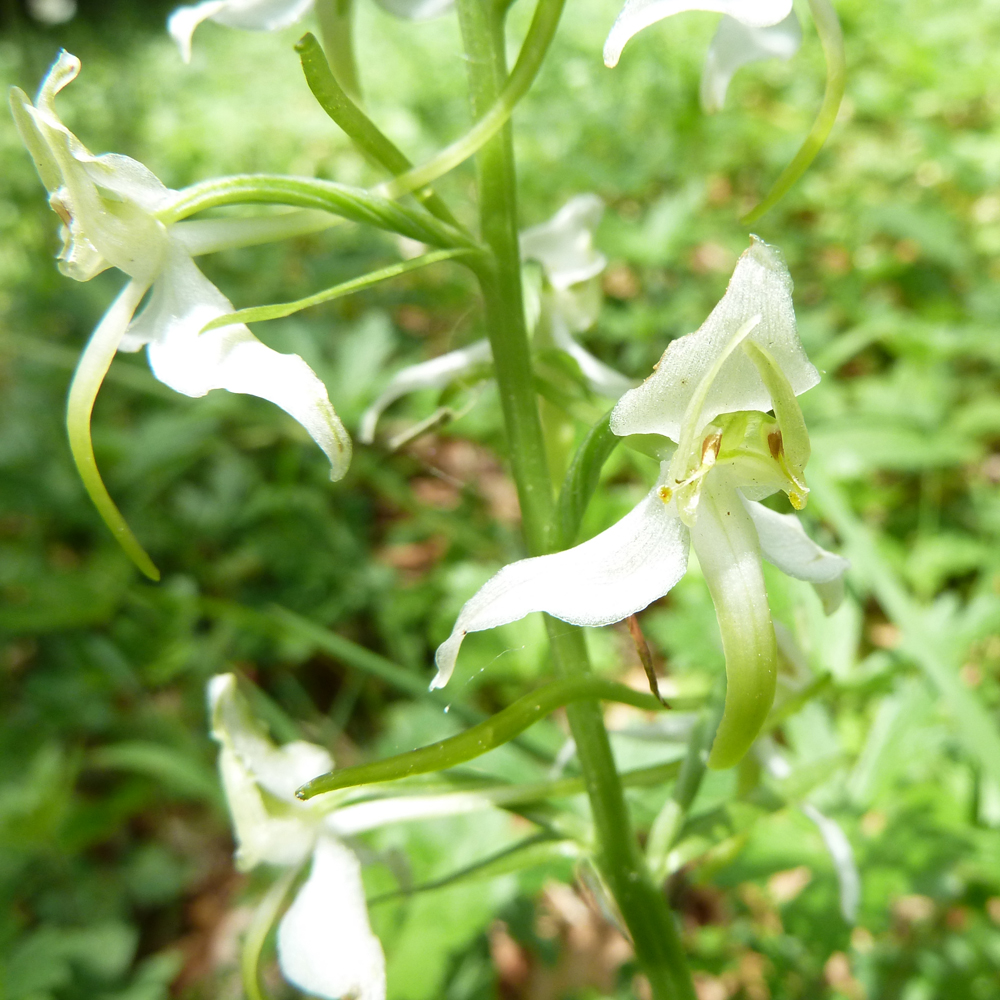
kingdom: Plantae
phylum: Tracheophyta
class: Liliopsida
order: Asparagales
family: Orchidaceae
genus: Platanthera
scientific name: Platanthera chlorantha
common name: Greater butterfly-orchid
